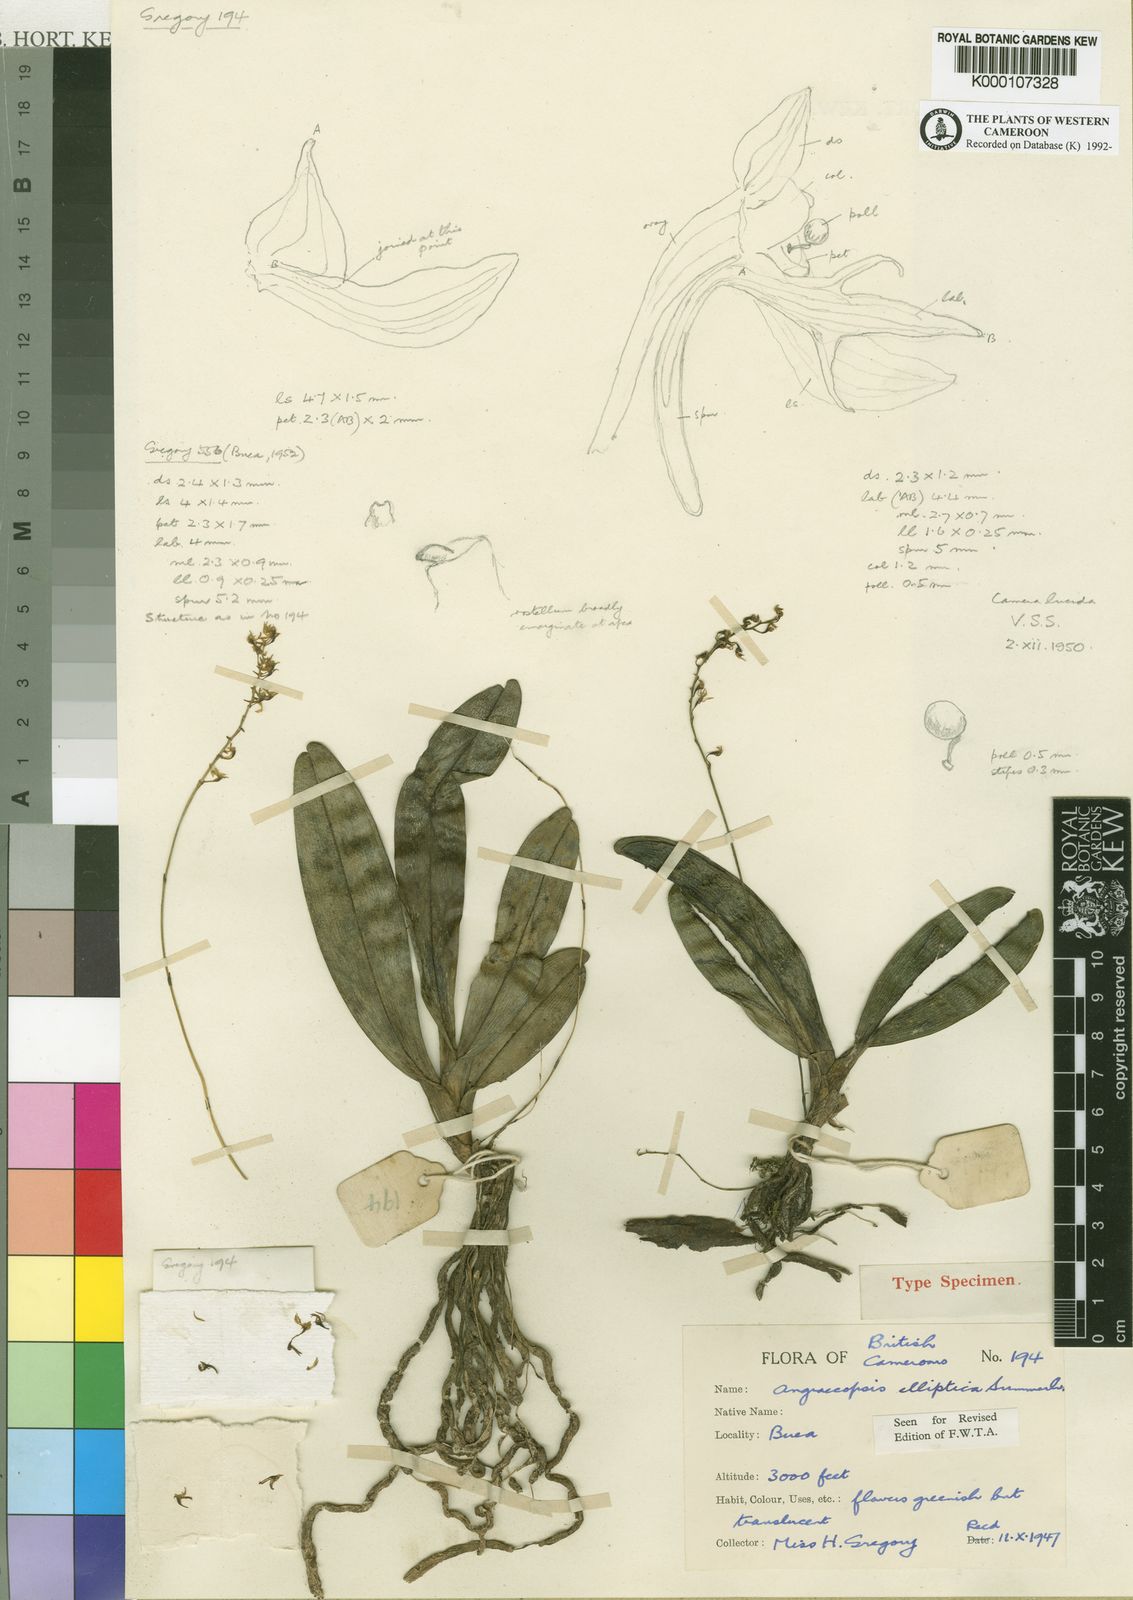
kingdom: Plantae
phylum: Tracheophyta
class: Liliopsida
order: Asparagales
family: Orchidaceae
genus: Angraecopsis
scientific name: Angraecopsis elliptica
